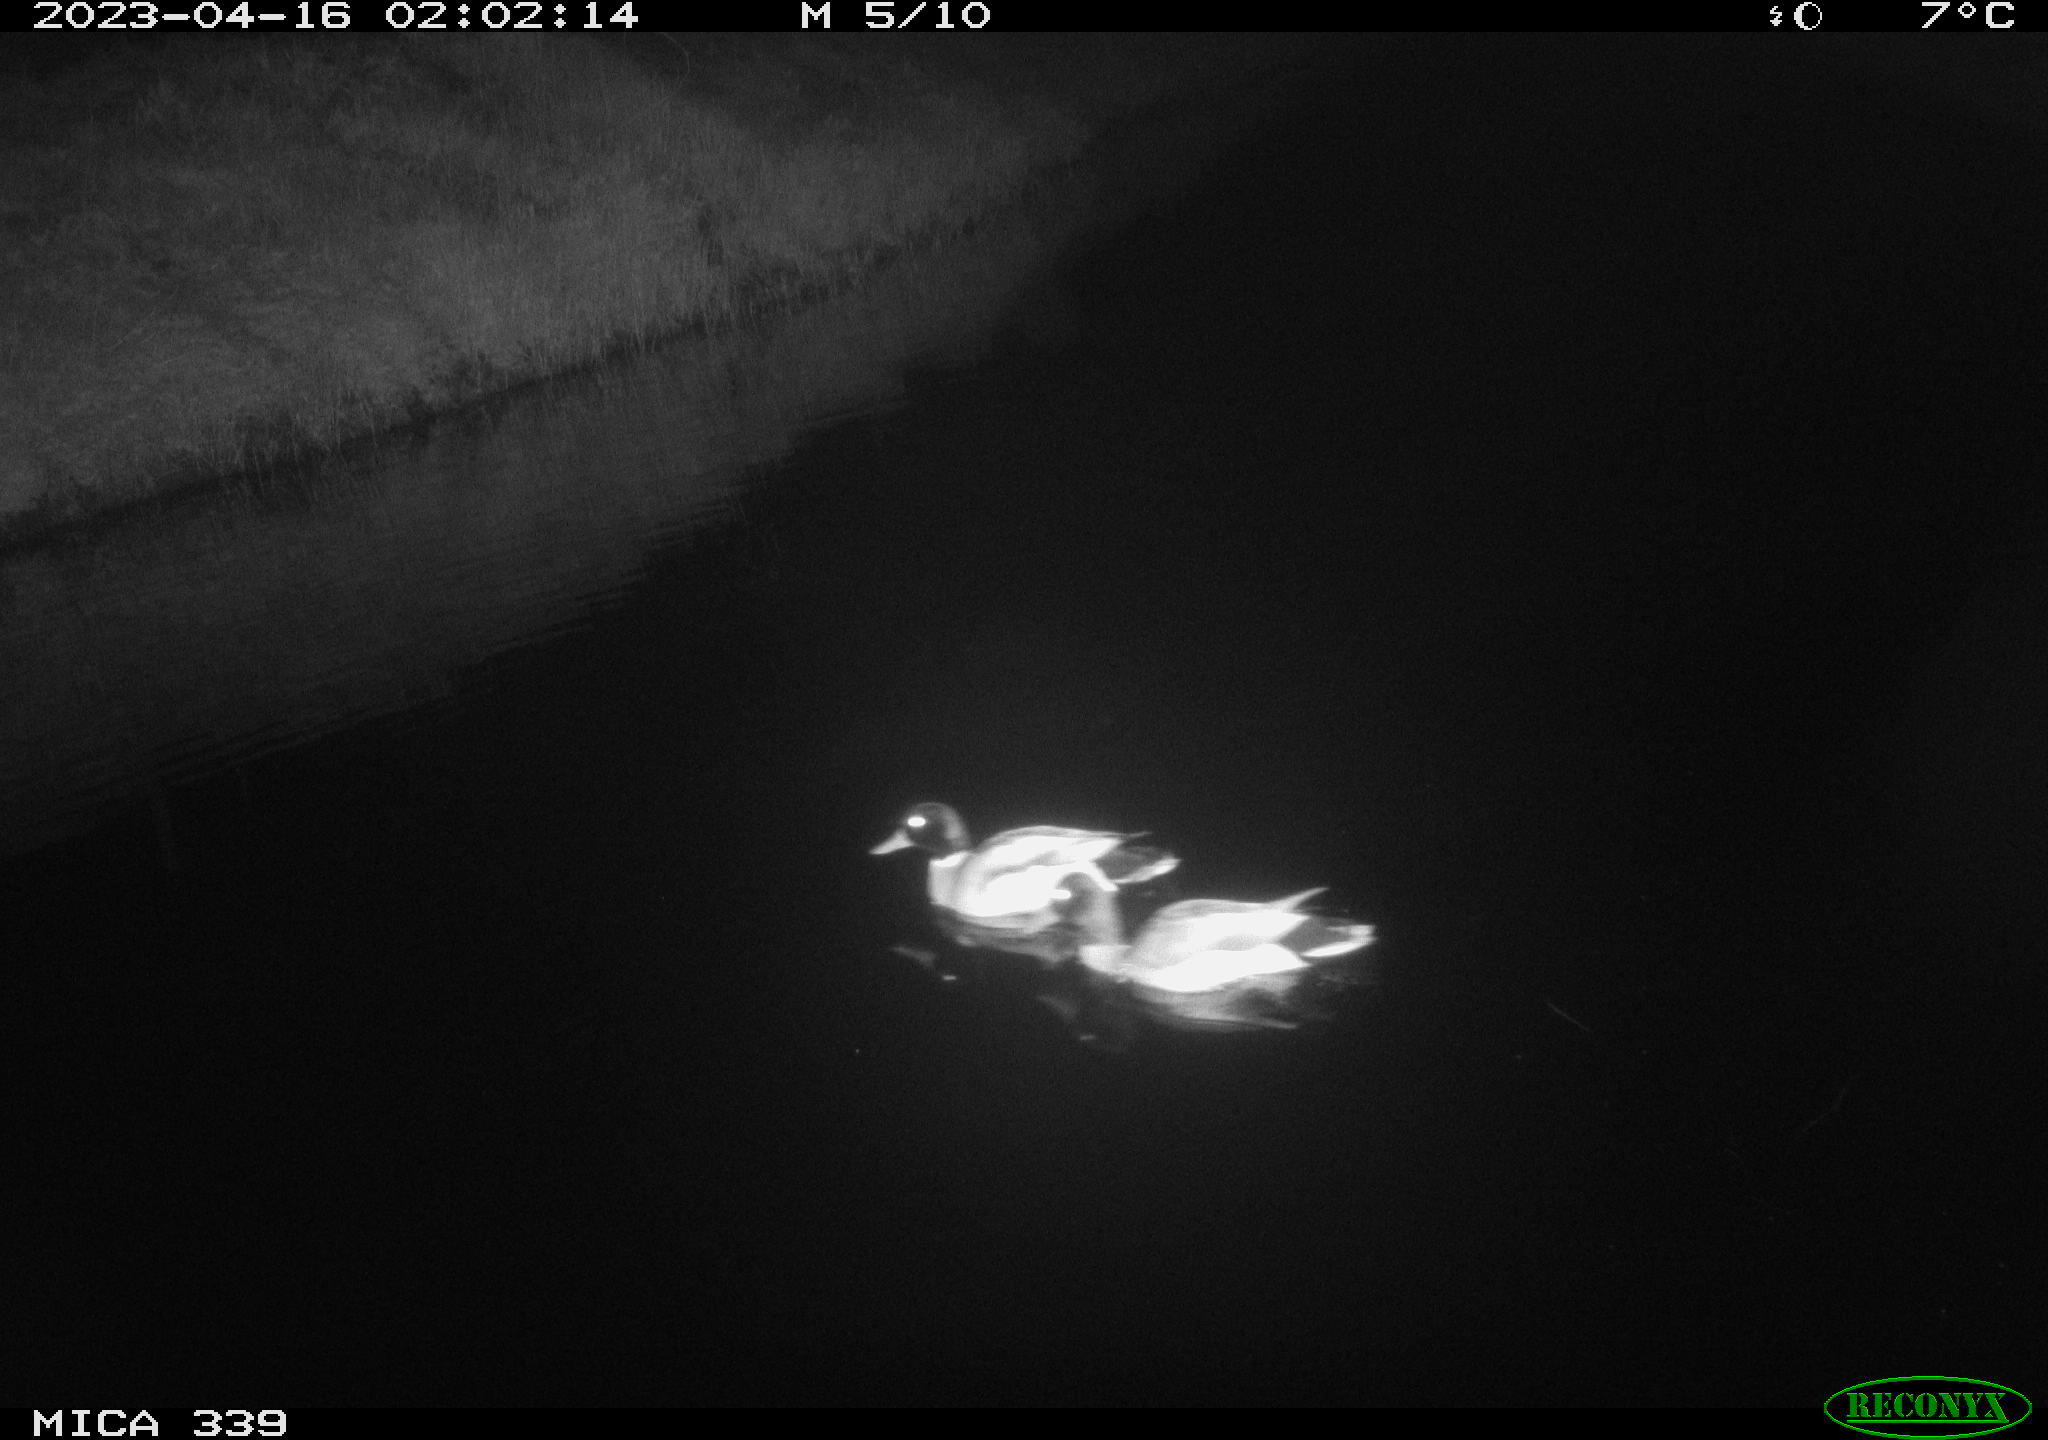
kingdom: Animalia
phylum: Chordata
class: Aves
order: Anseriformes
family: Anatidae
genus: Anas
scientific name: Anas
